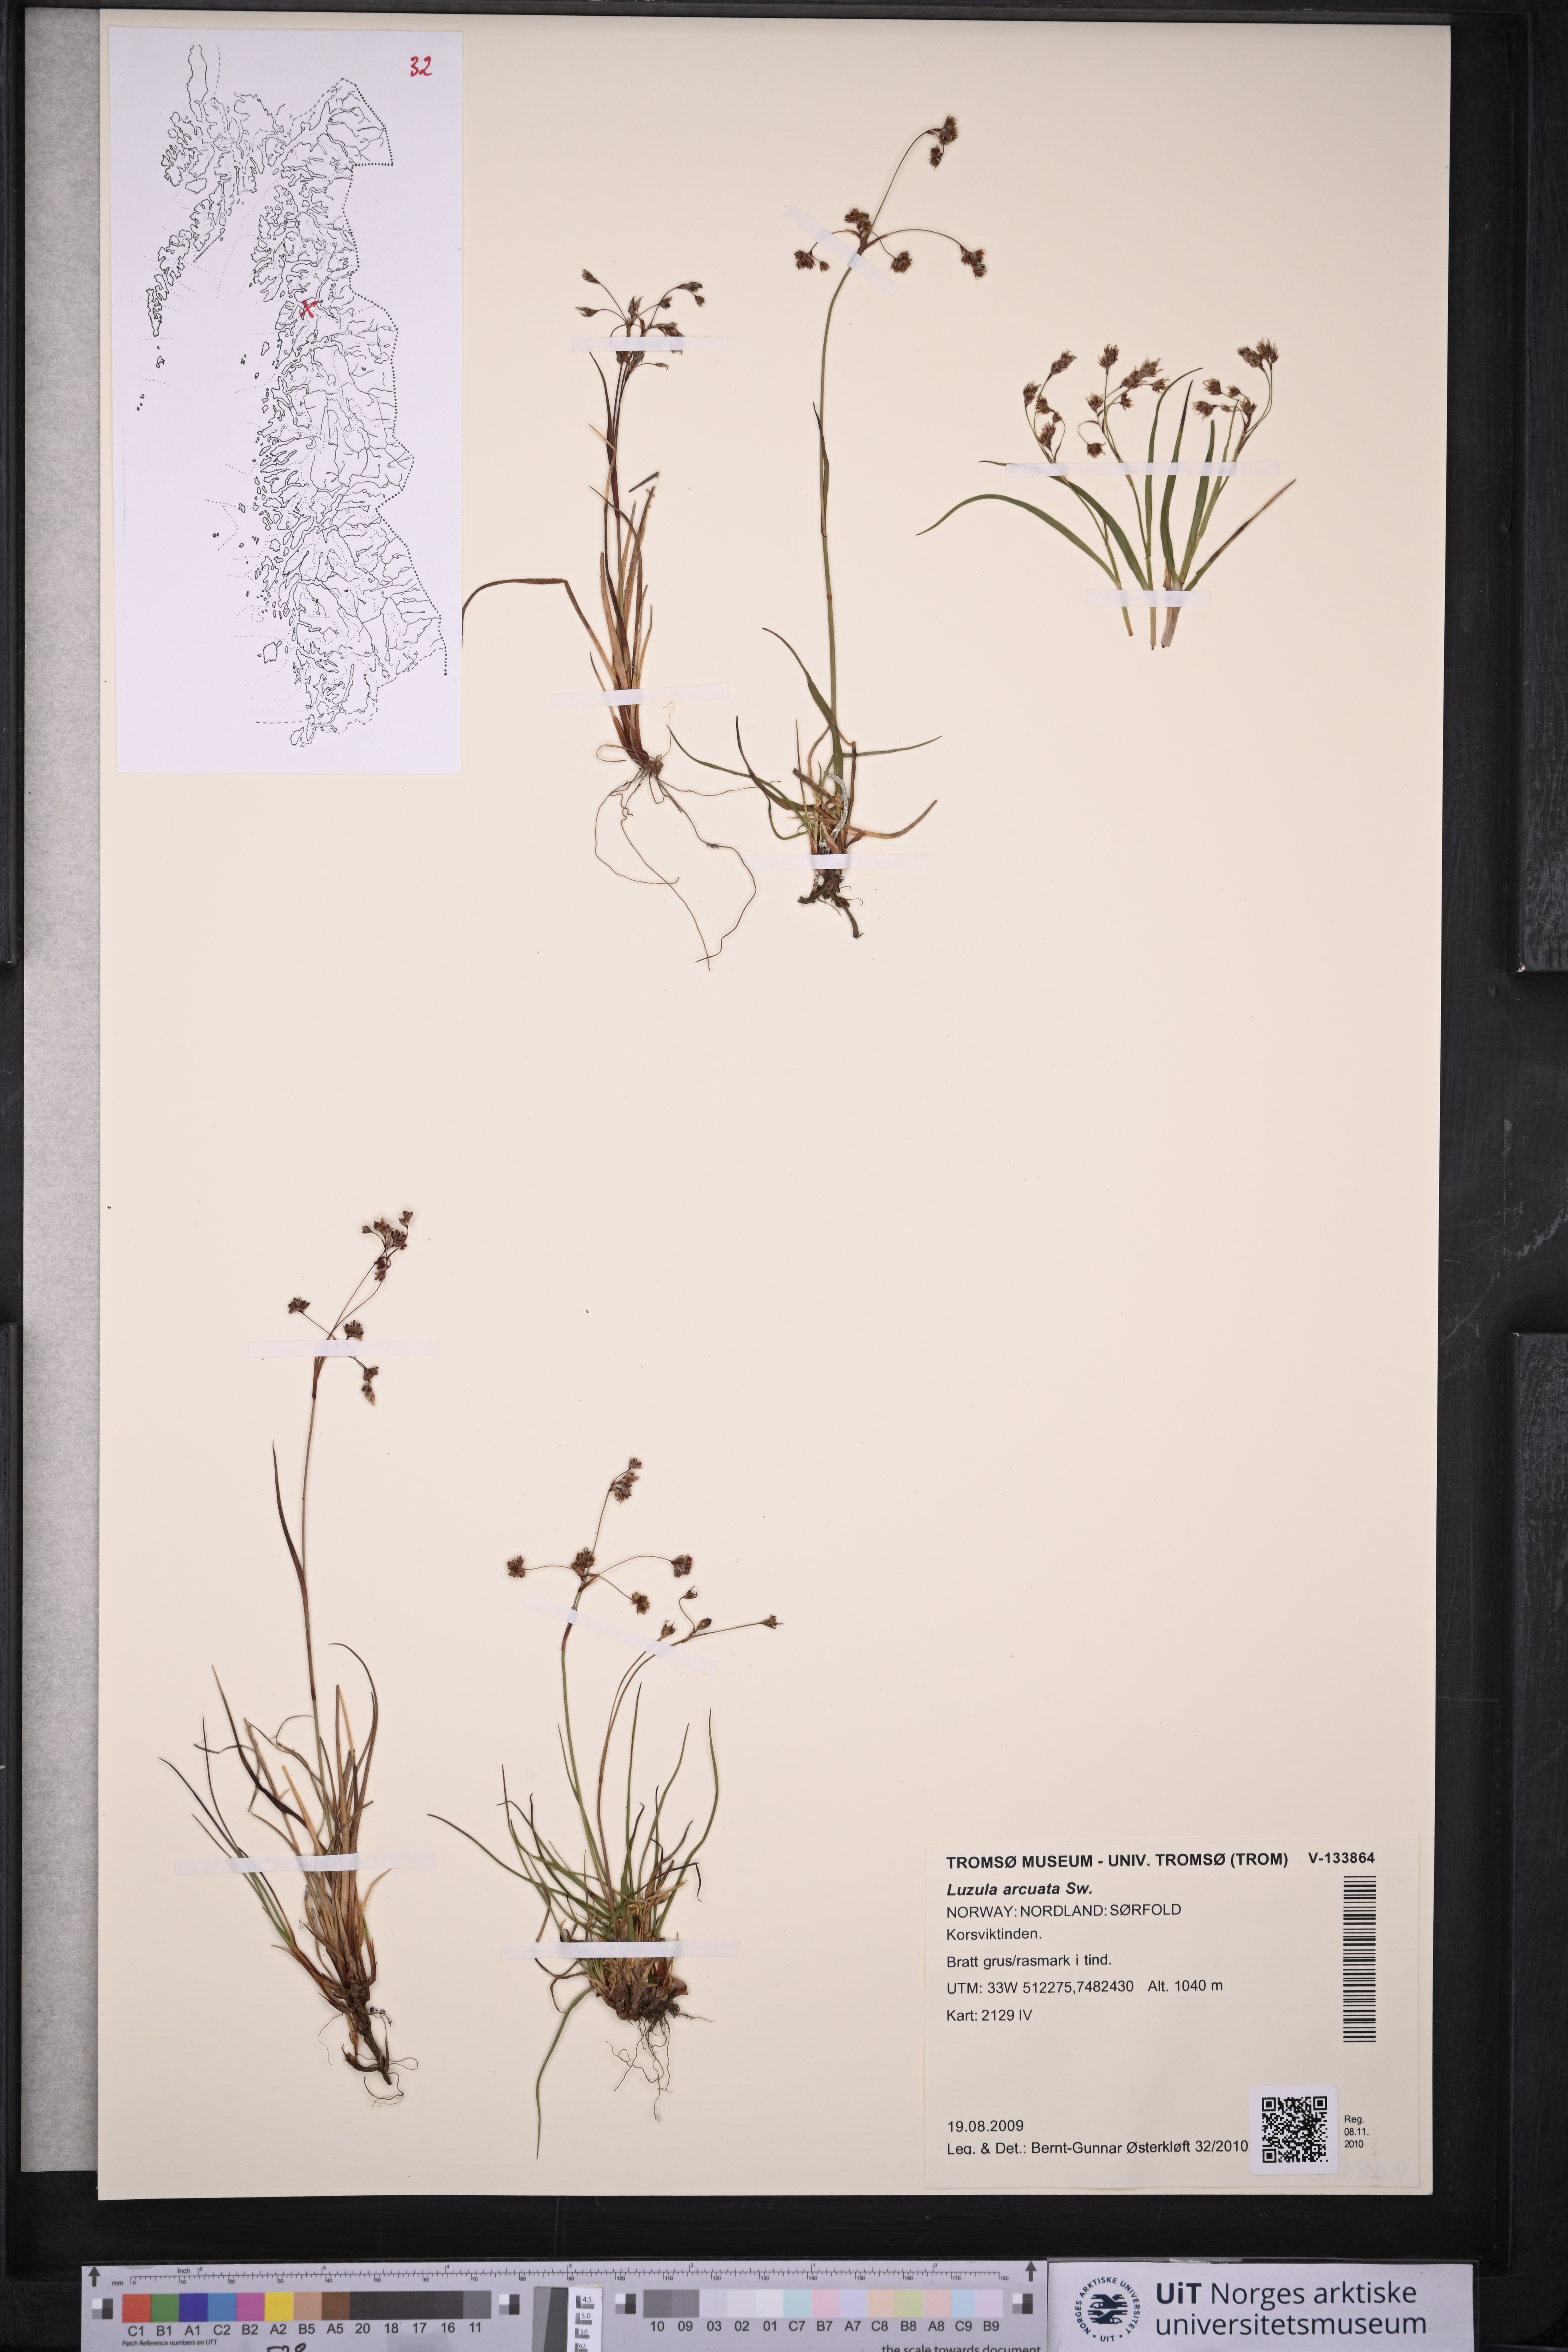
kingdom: Plantae
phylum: Tracheophyta
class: Liliopsida
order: Poales
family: Juncaceae
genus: Luzula
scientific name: Luzula arcuata
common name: Curved wood-rush
